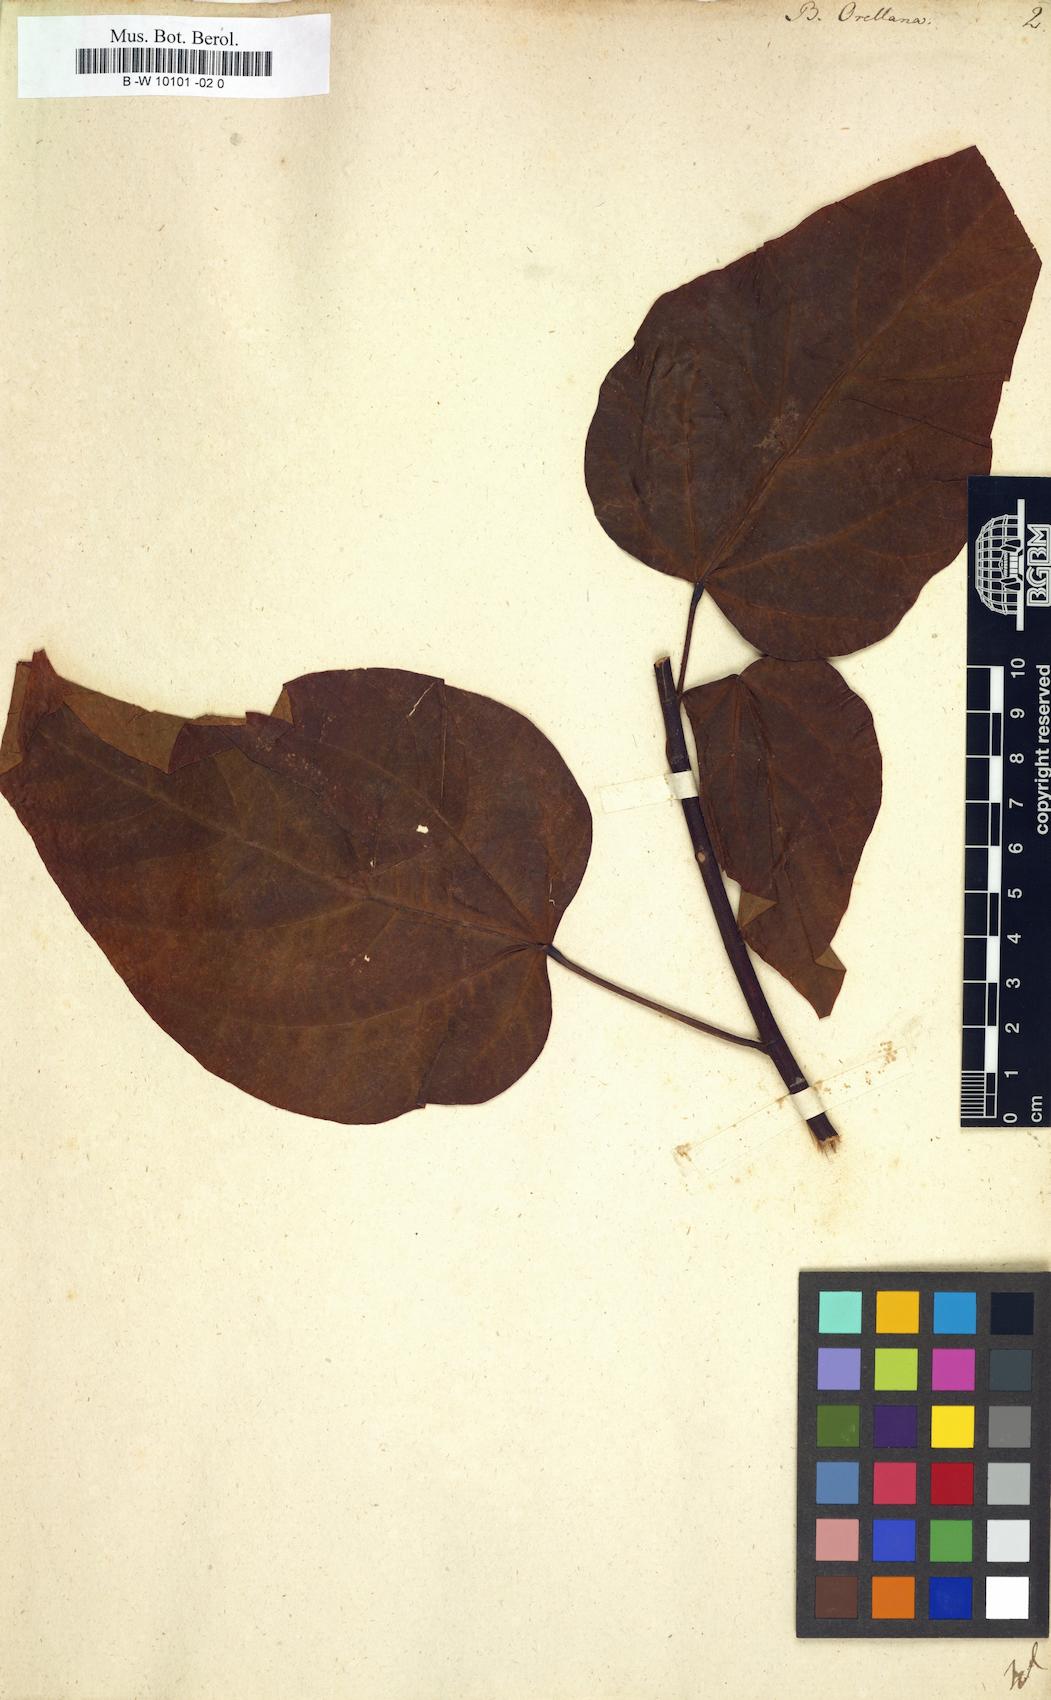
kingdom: Plantae
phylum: Tracheophyta
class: Magnoliopsida
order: Malvales
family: Bixaceae
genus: Bixa
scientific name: Bixa orellana
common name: Lipsticktree
